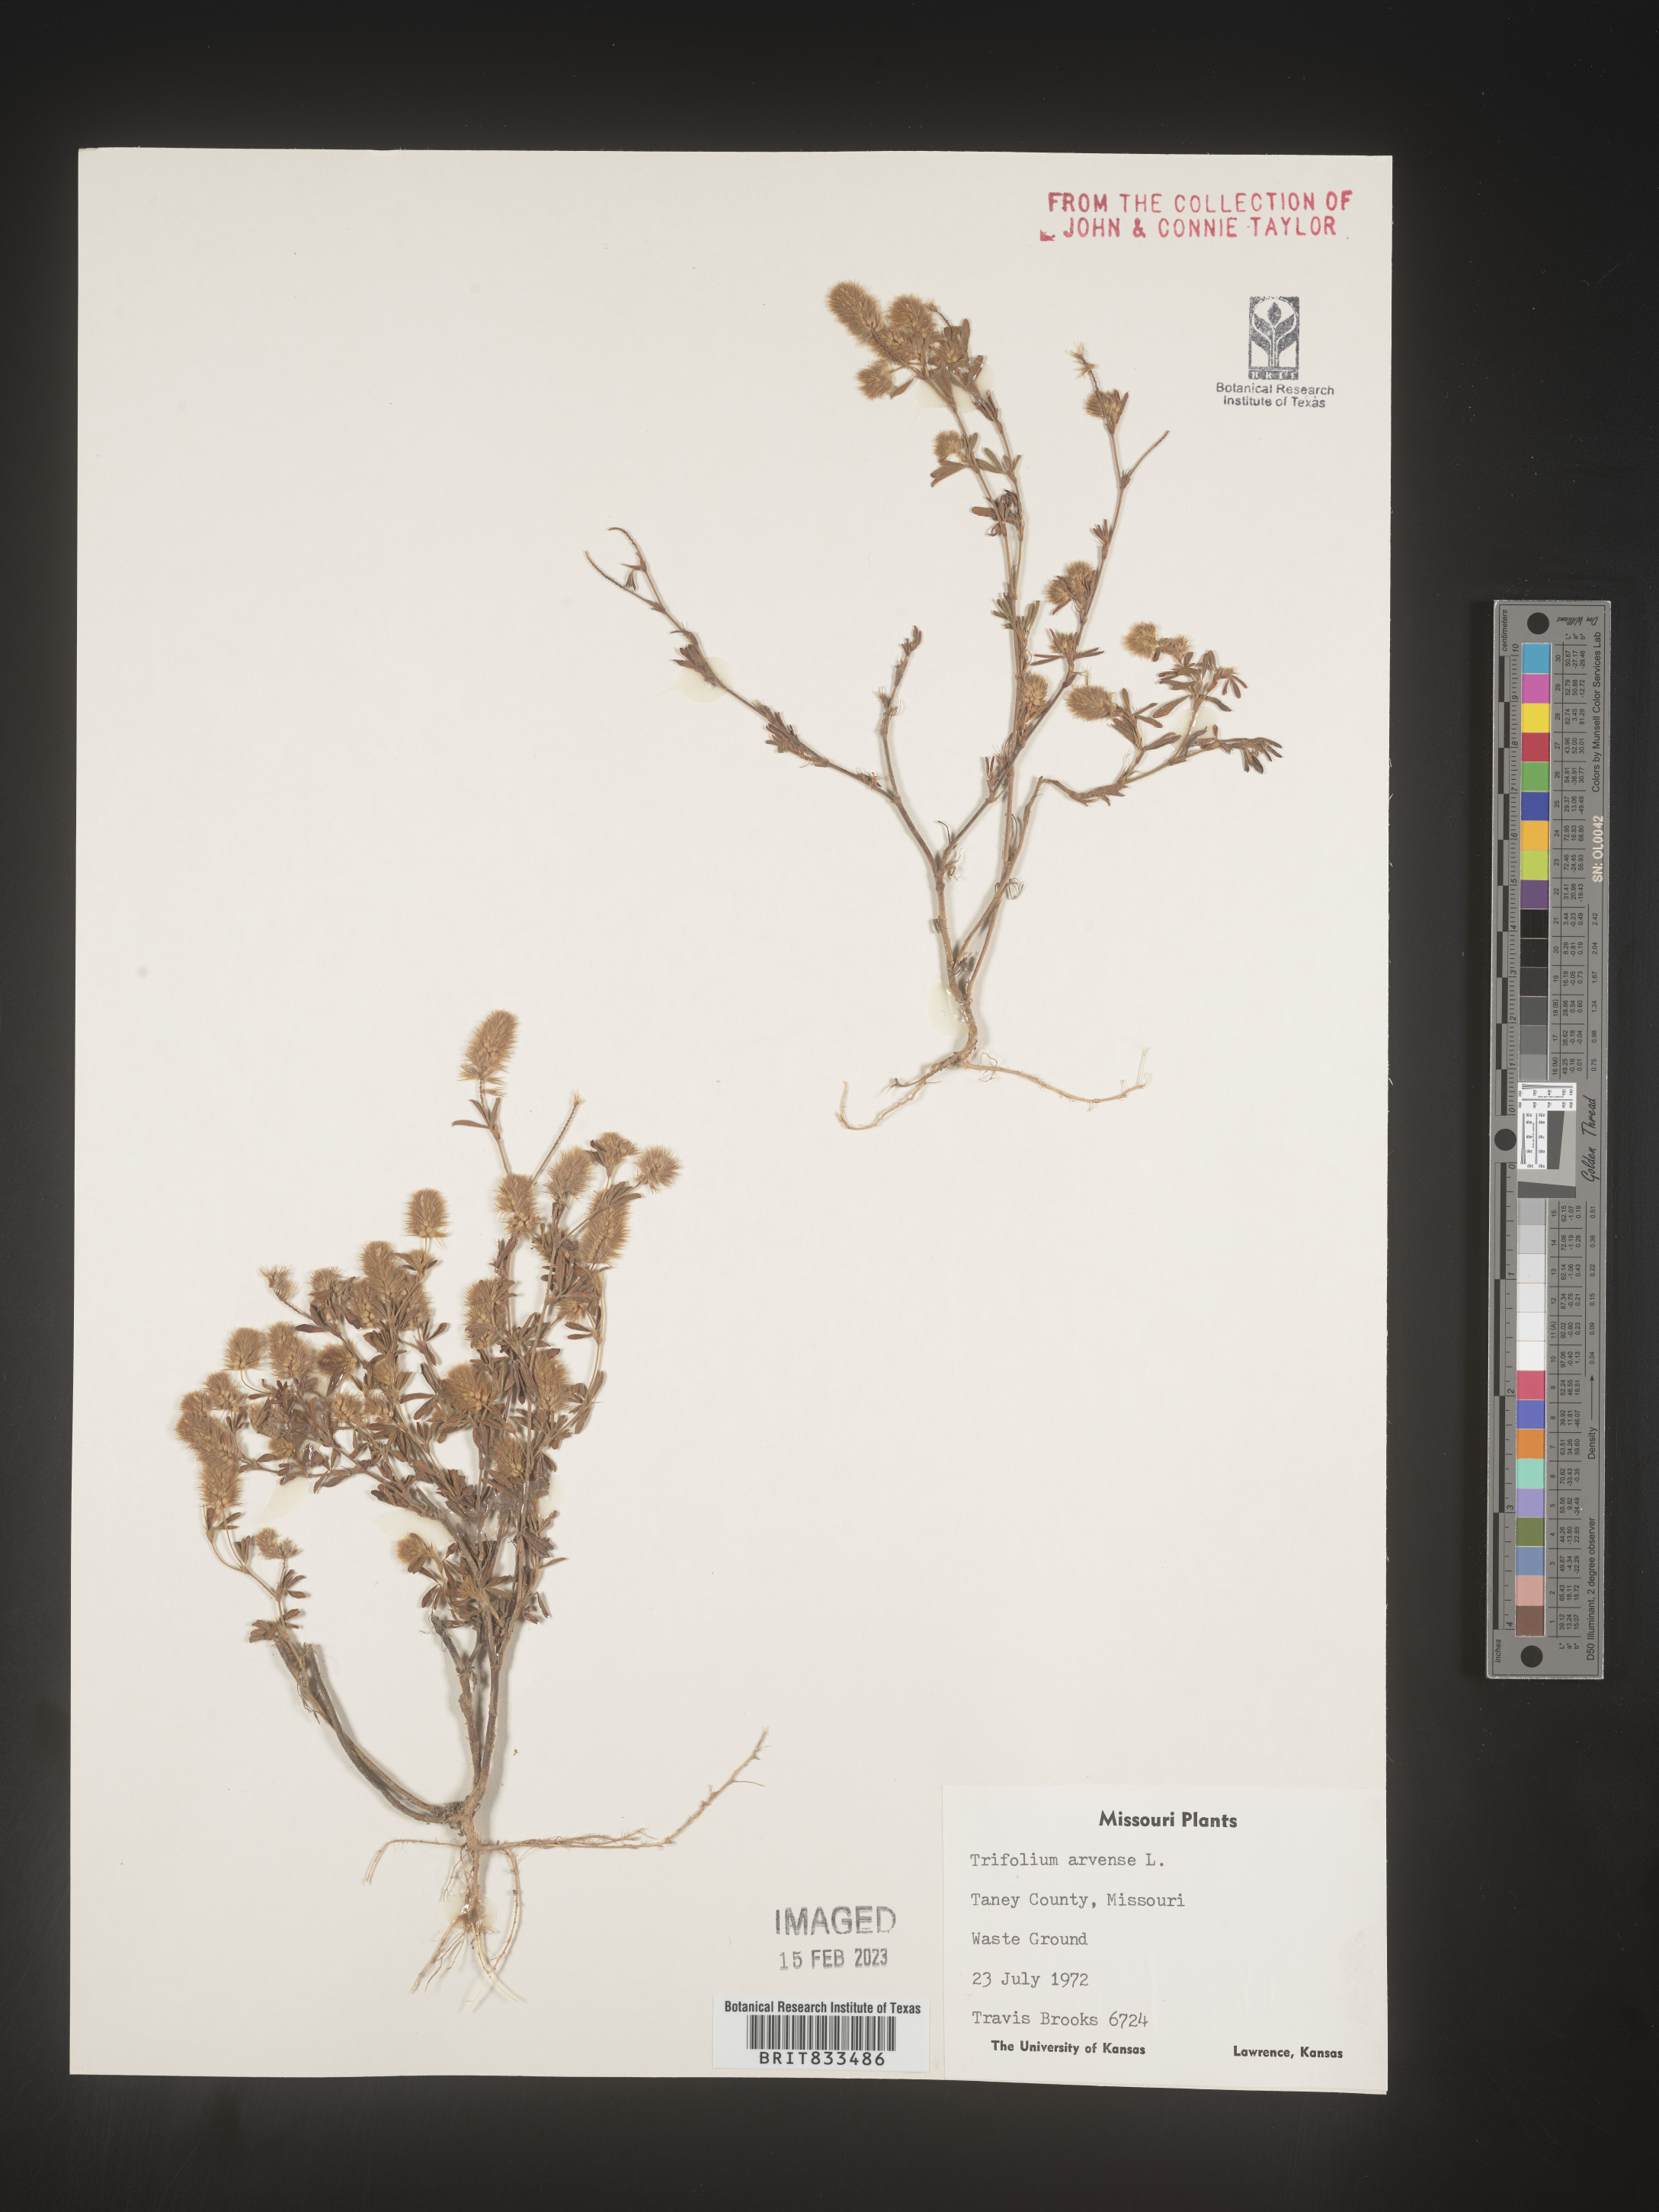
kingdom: Plantae
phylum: Tracheophyta
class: Magnoliopsida
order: Fabales
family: Fabaceae
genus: Trifolium
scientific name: Trifolium arvense
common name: Hare's-foot clover
